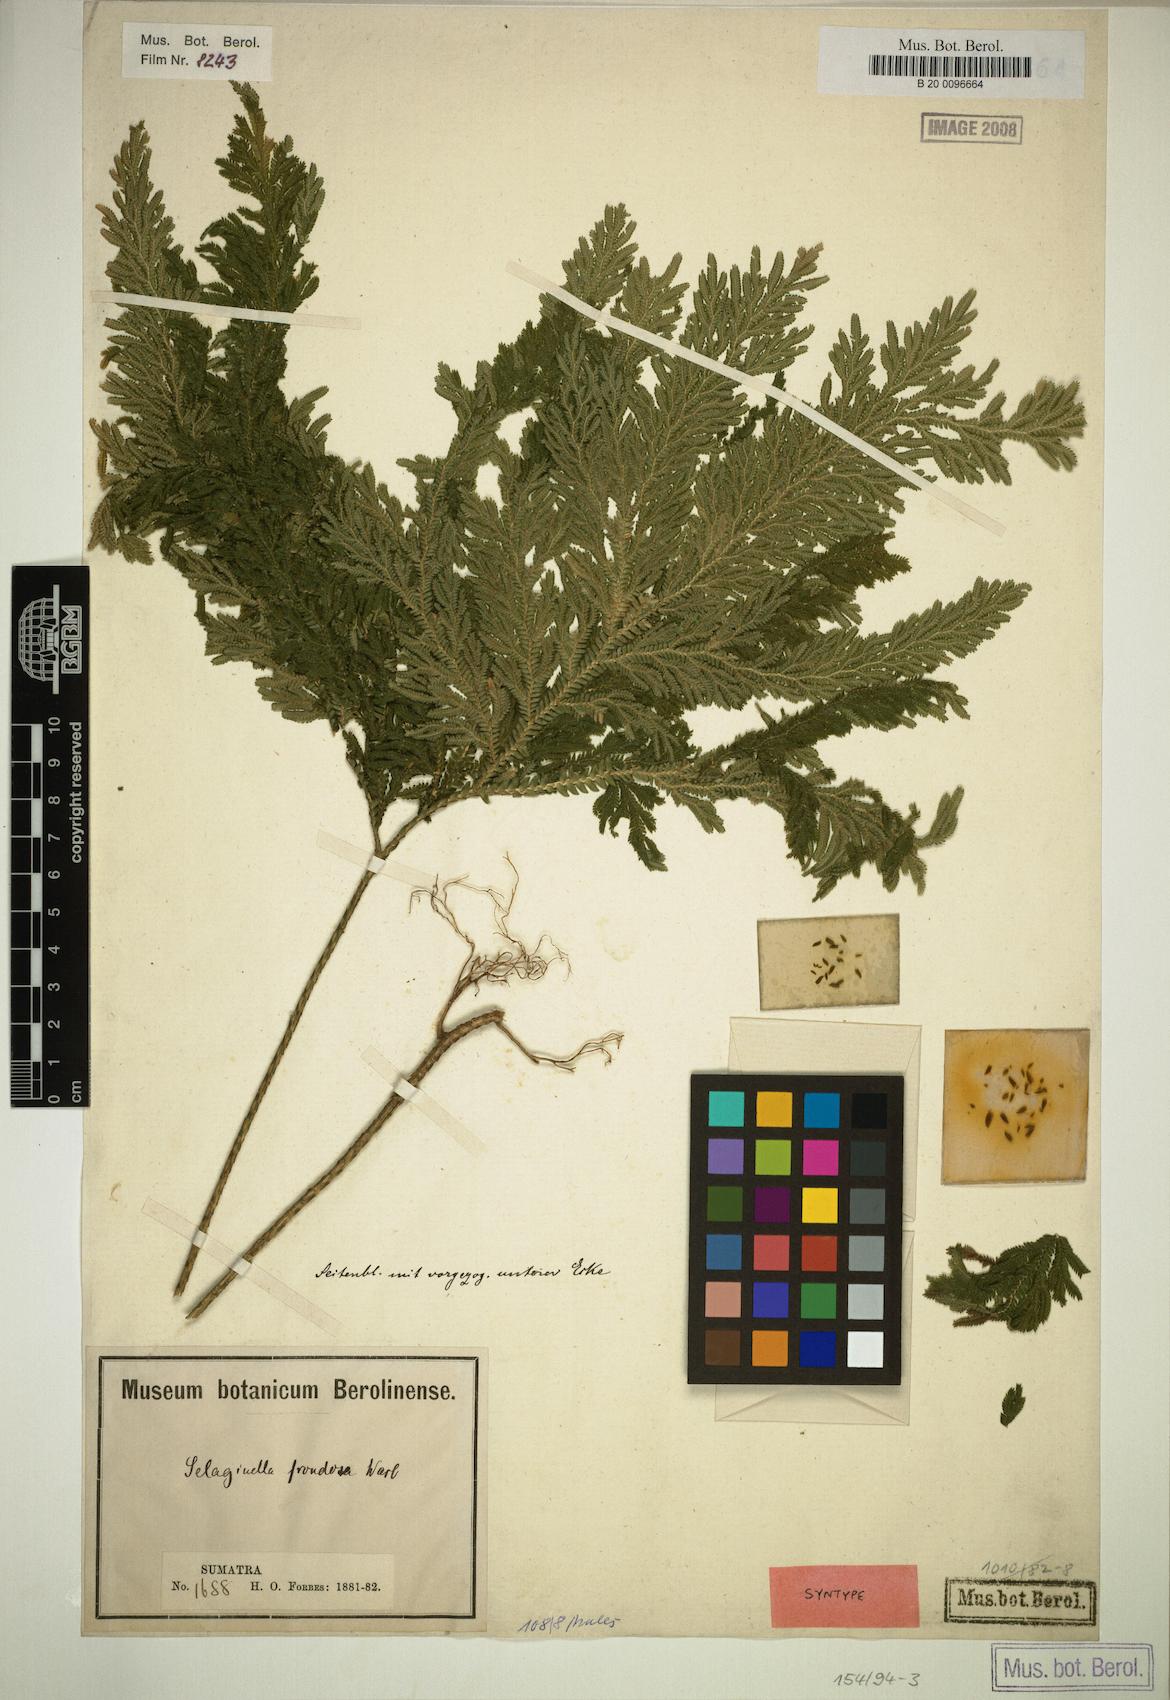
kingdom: Plantae
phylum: Tracheophyta
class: Lycopodiopsida
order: Selaginellales
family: Selaginellaceae
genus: Selaginella
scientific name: Selaginella frondosa
